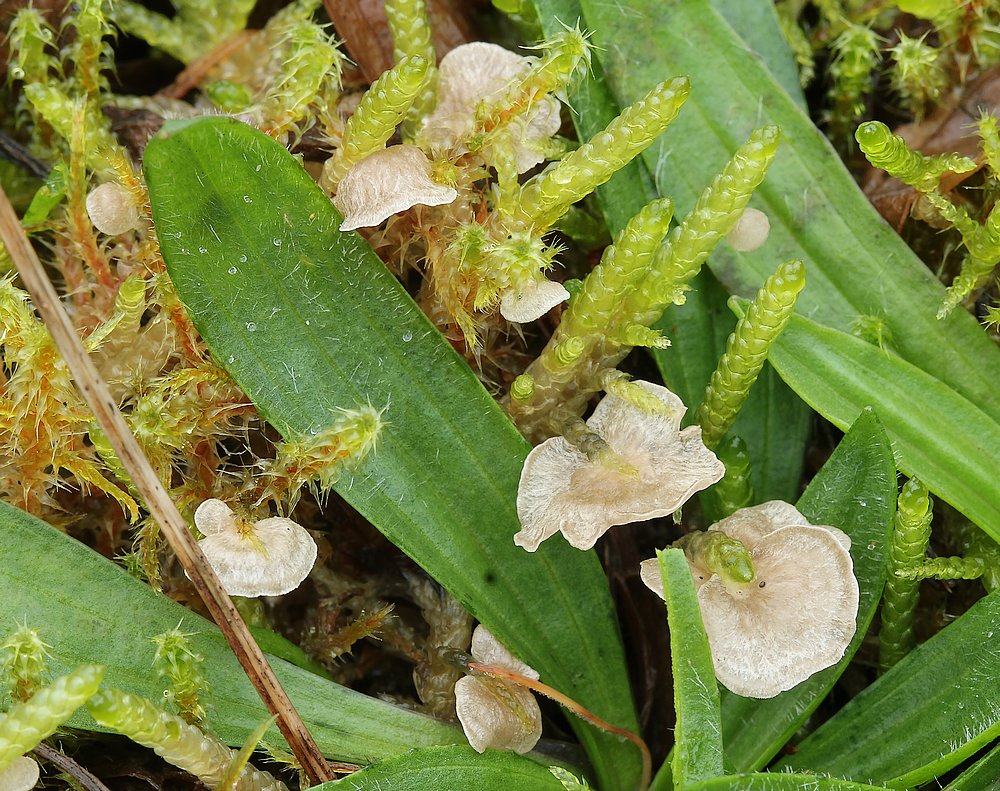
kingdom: Fungi
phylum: Basidiomycota
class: Agaricomycetes
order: Agaricales
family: Hygrophoraceae
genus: Arrhenia
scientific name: Arrhenia retiruga
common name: lille fontænehat
